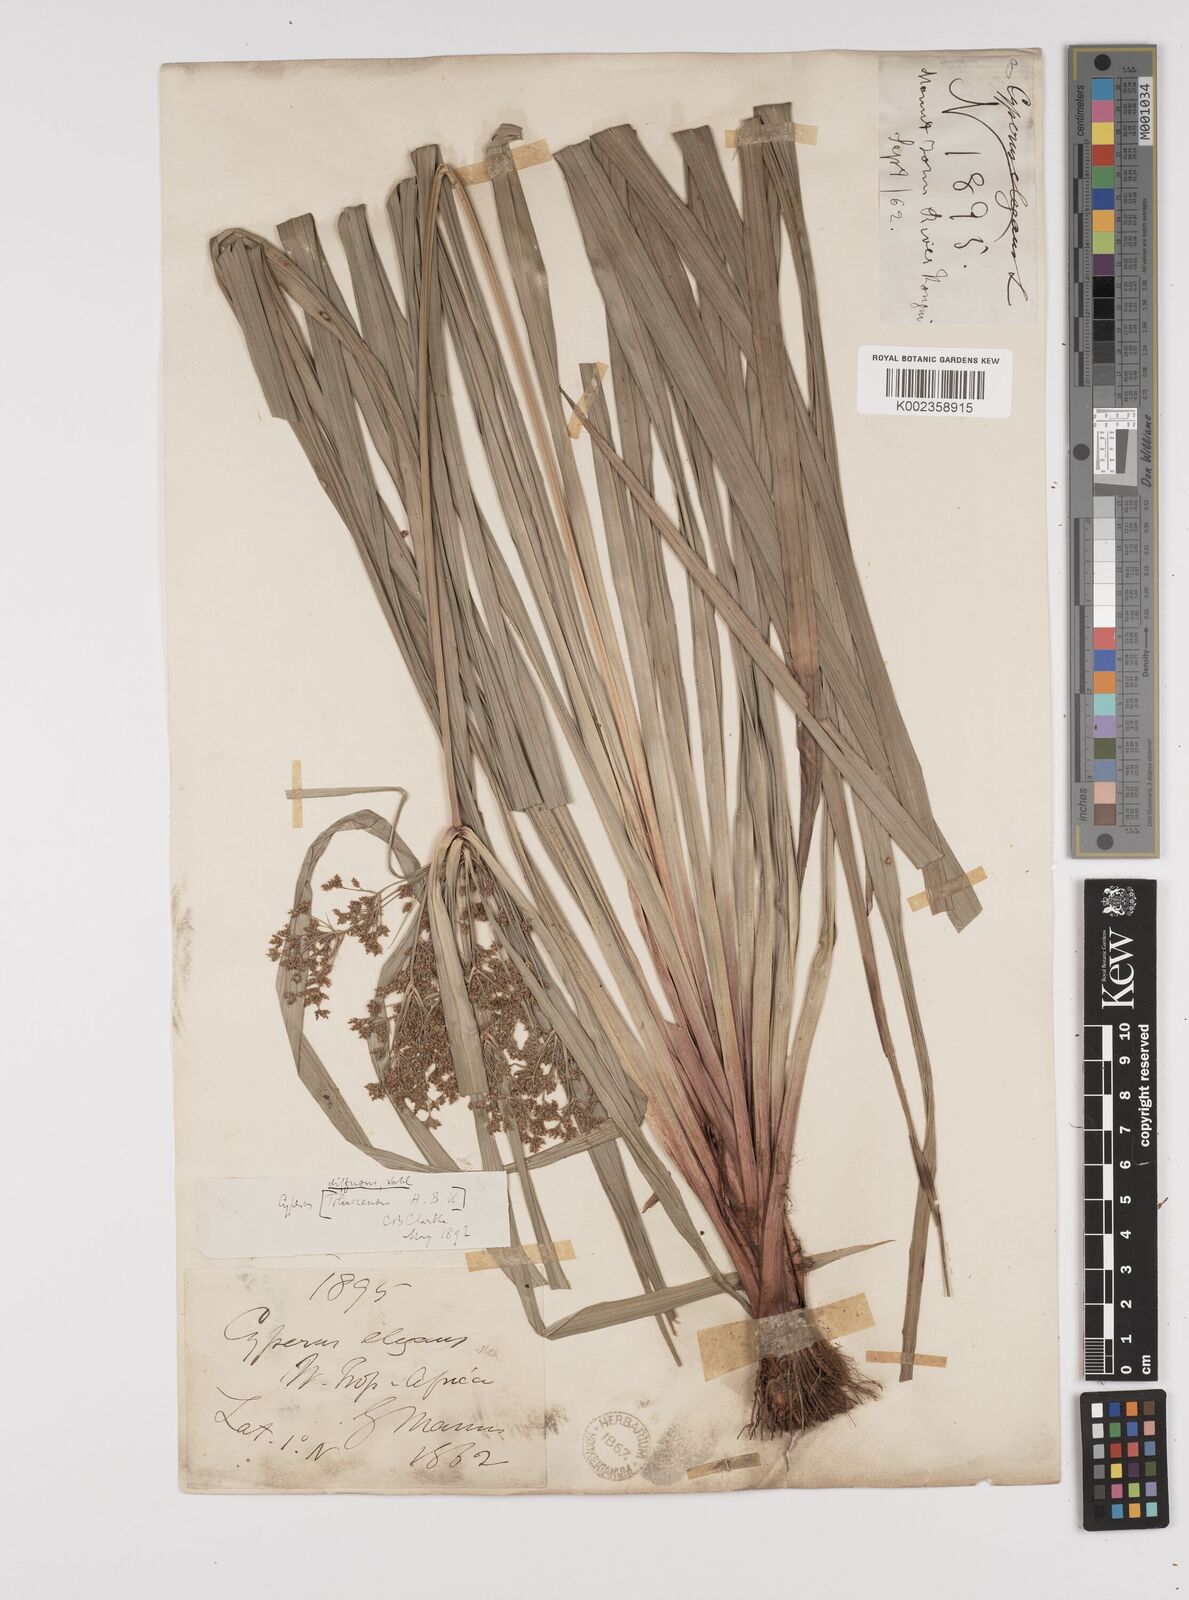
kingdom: Plantae
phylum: Tracheophyta
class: Liliopsida
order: Poales
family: Cyperaceae
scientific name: Cyperaceae
